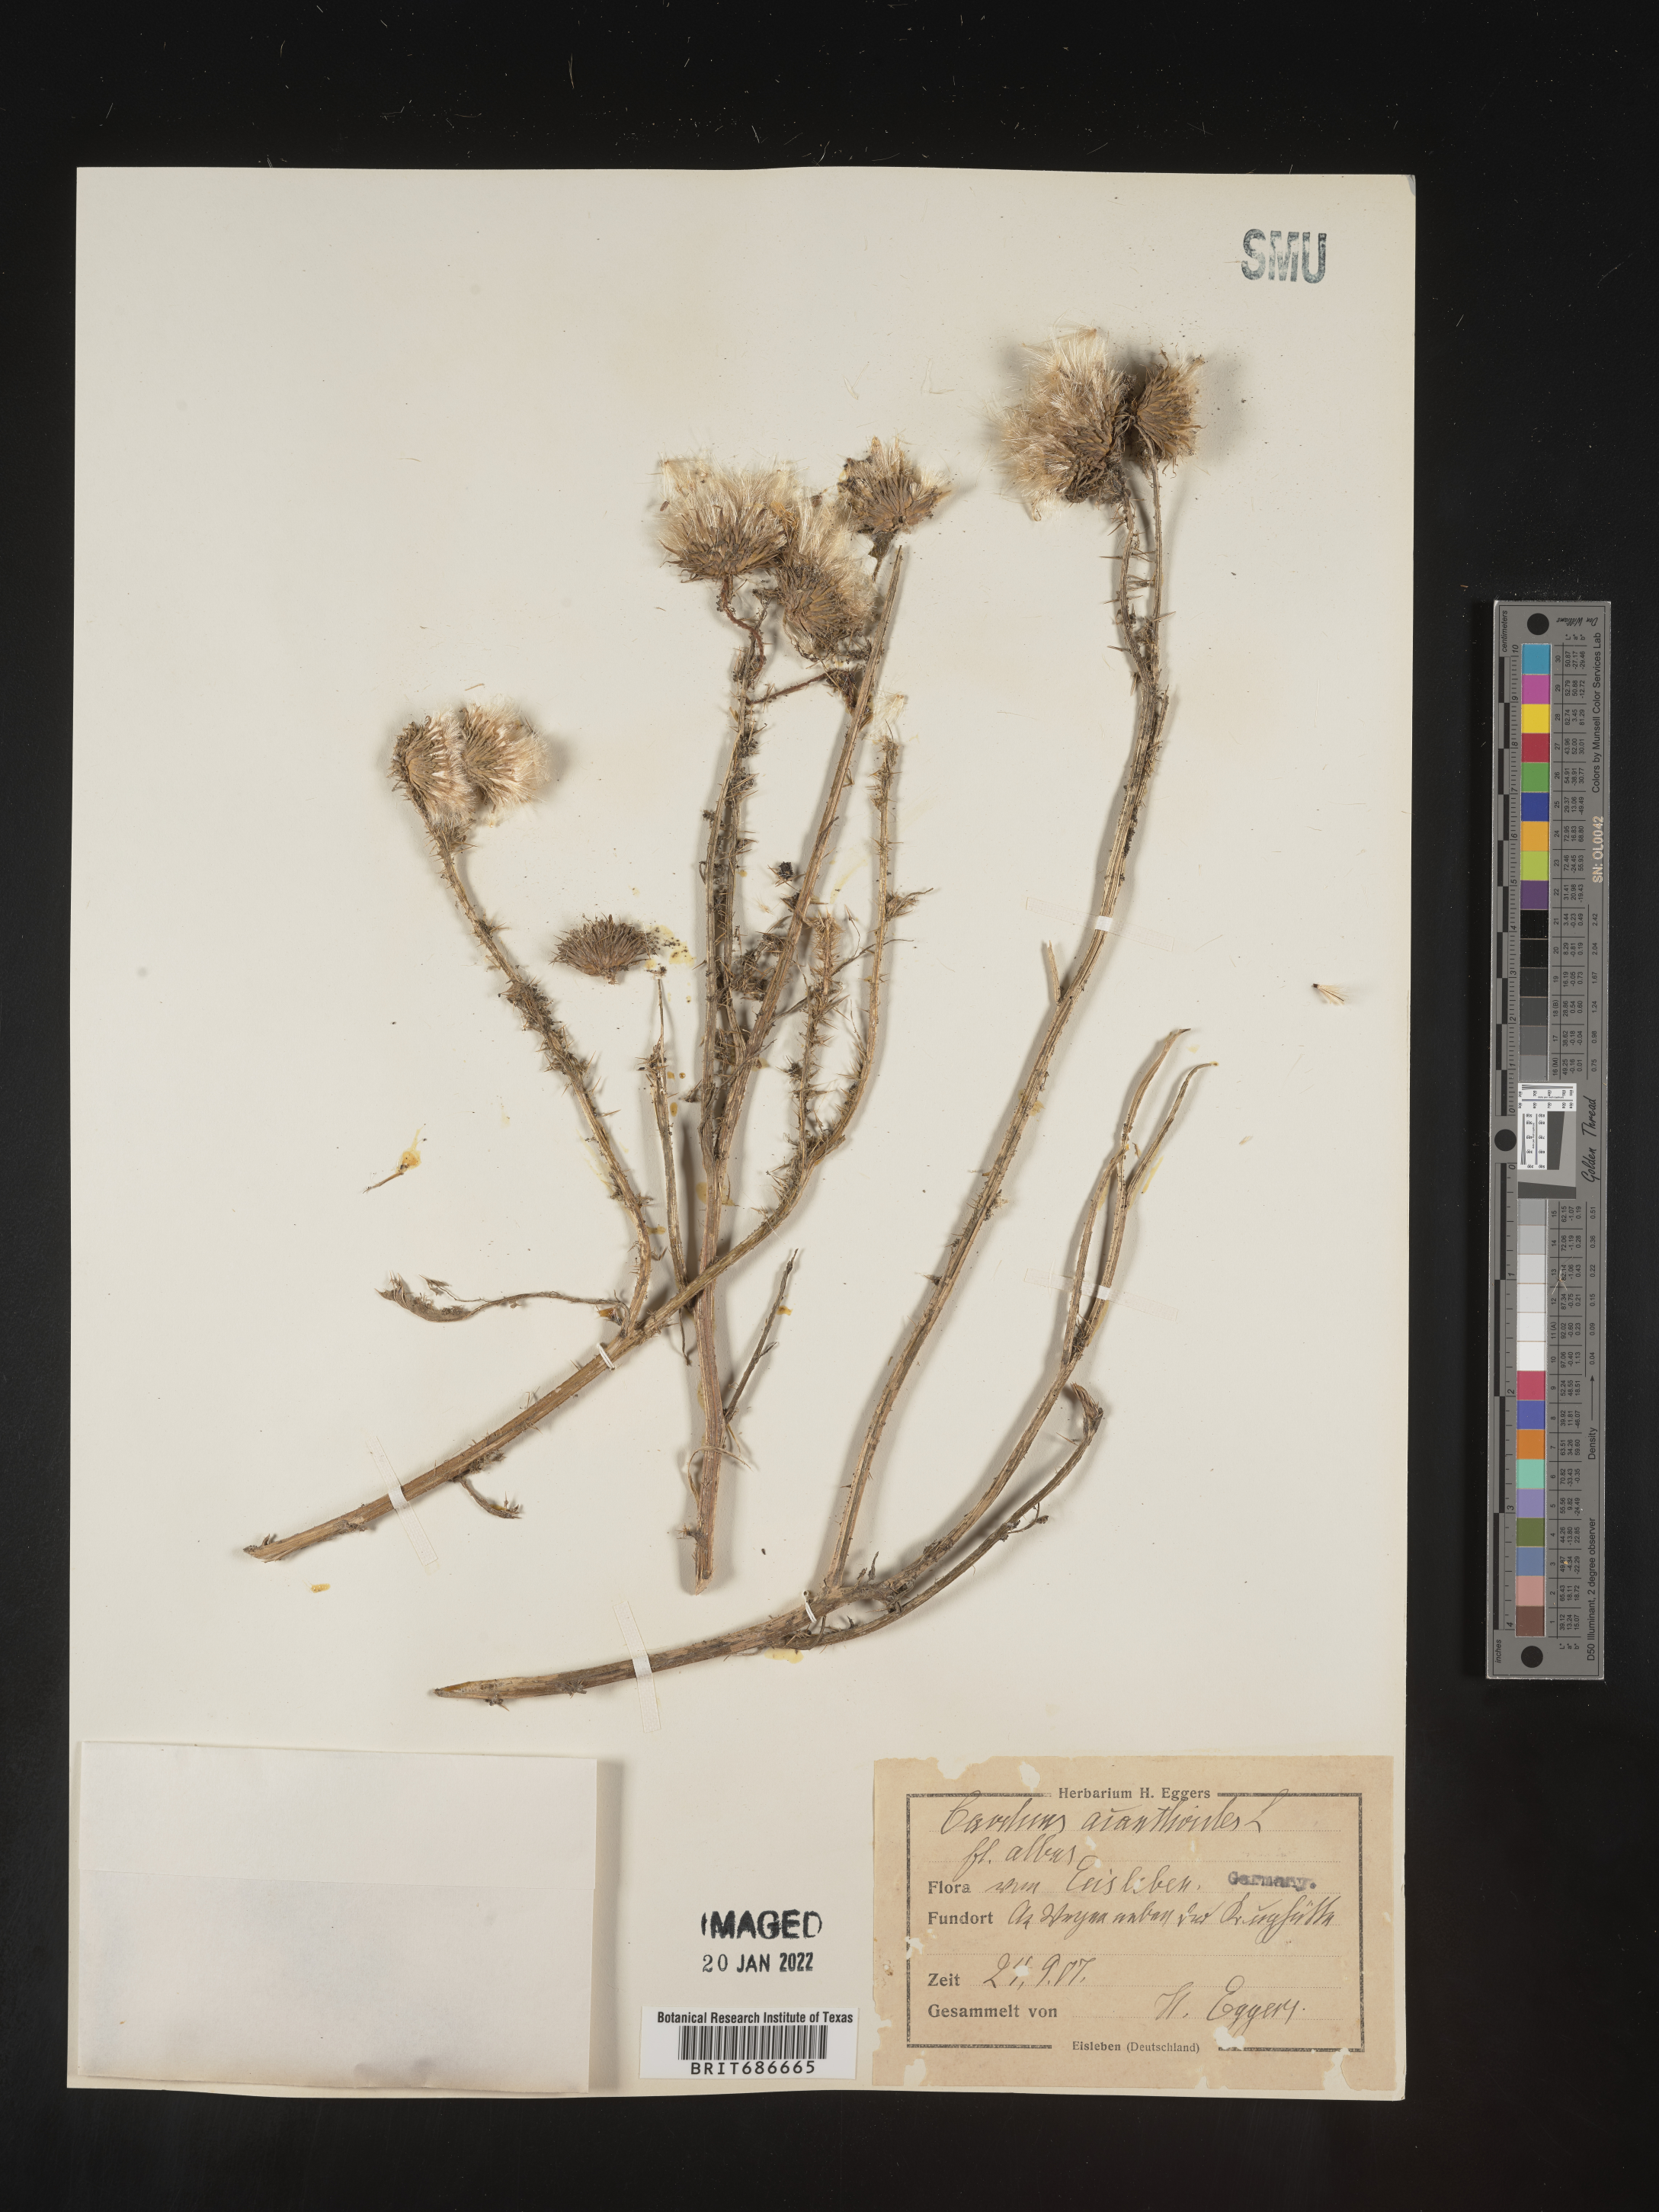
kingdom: Plantae
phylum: Tracheophyta
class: Magnoliopsida
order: Asterales
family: Asteraceae
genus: Carduus
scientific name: Carduus acanthoides
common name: Plumeless thistle
